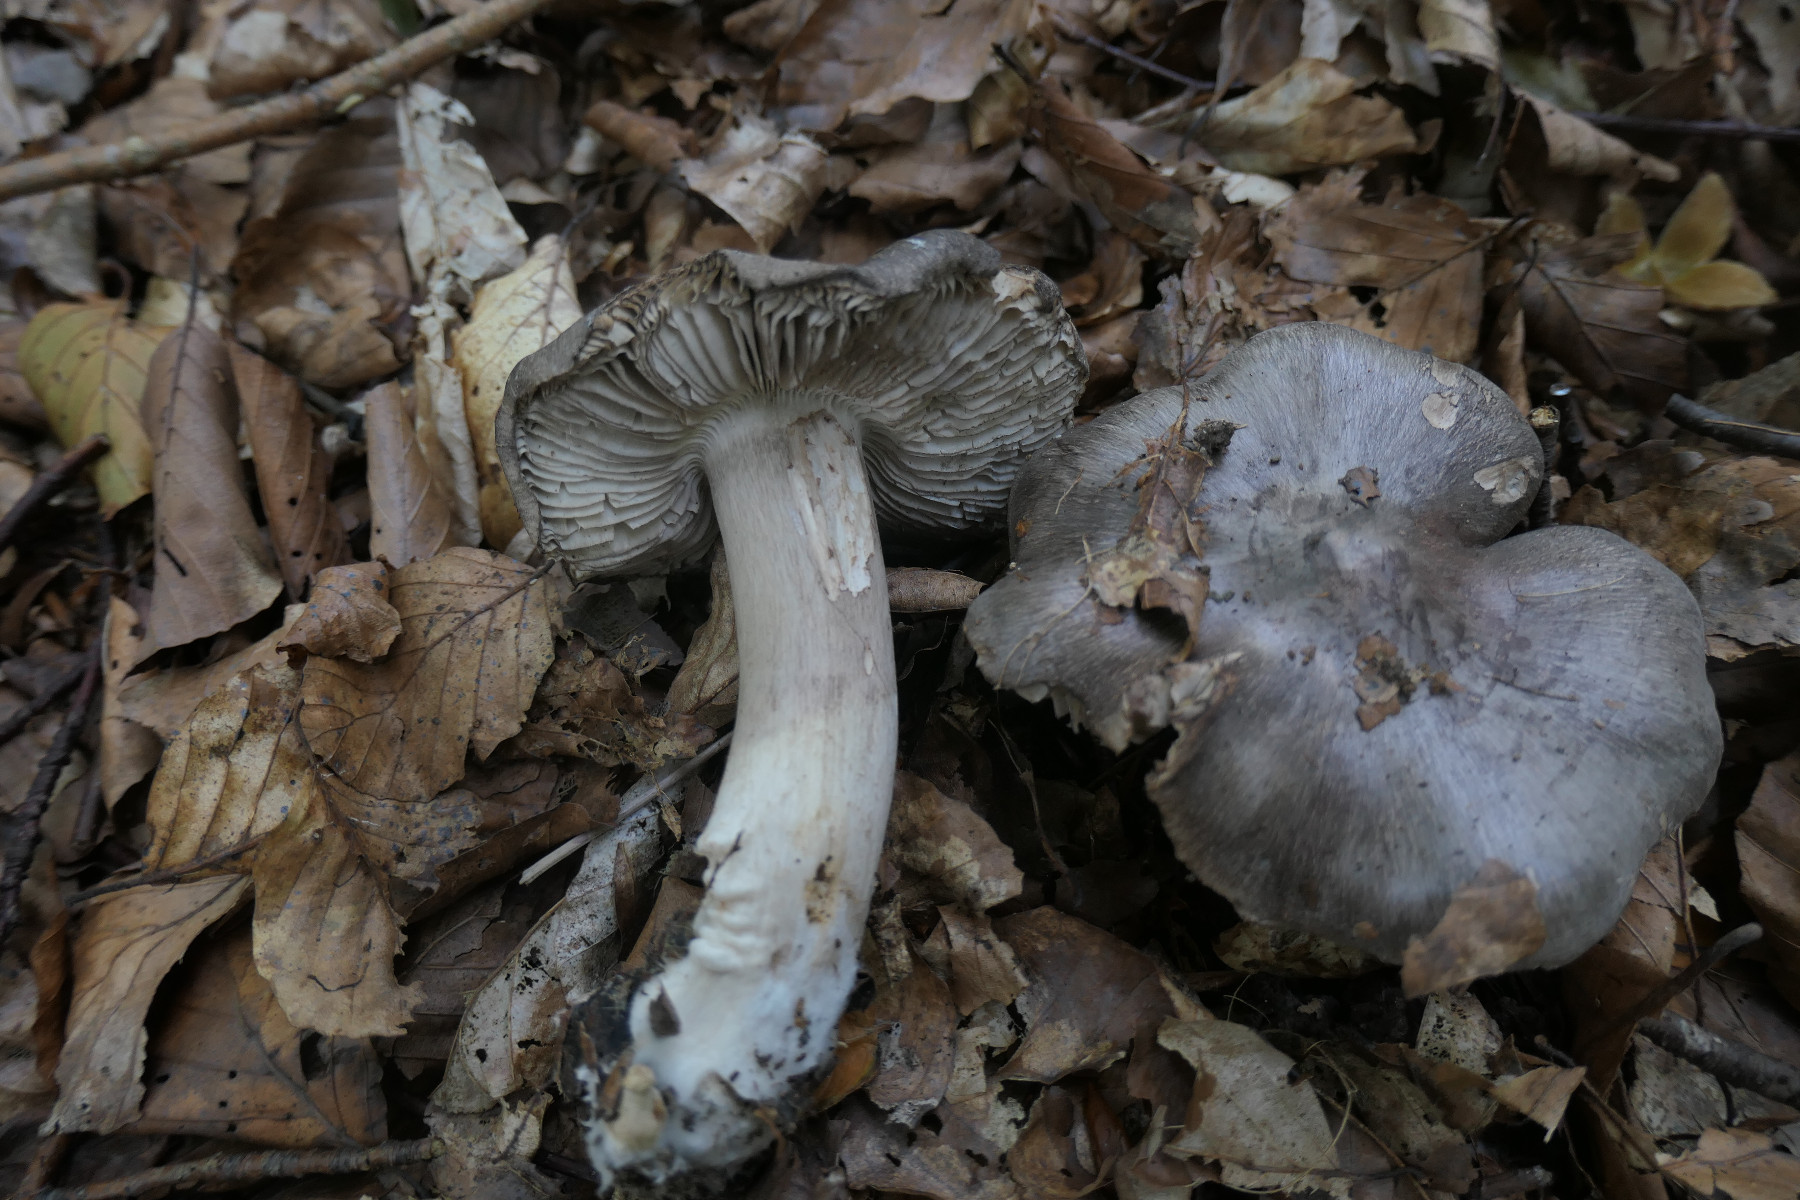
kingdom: Fungi
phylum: Basidiomycota
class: Agaricomycetes
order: Agaricales
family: Tricholomataceae
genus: Tricholoma
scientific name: Tricholoma sciodes
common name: stribet ridderhat
